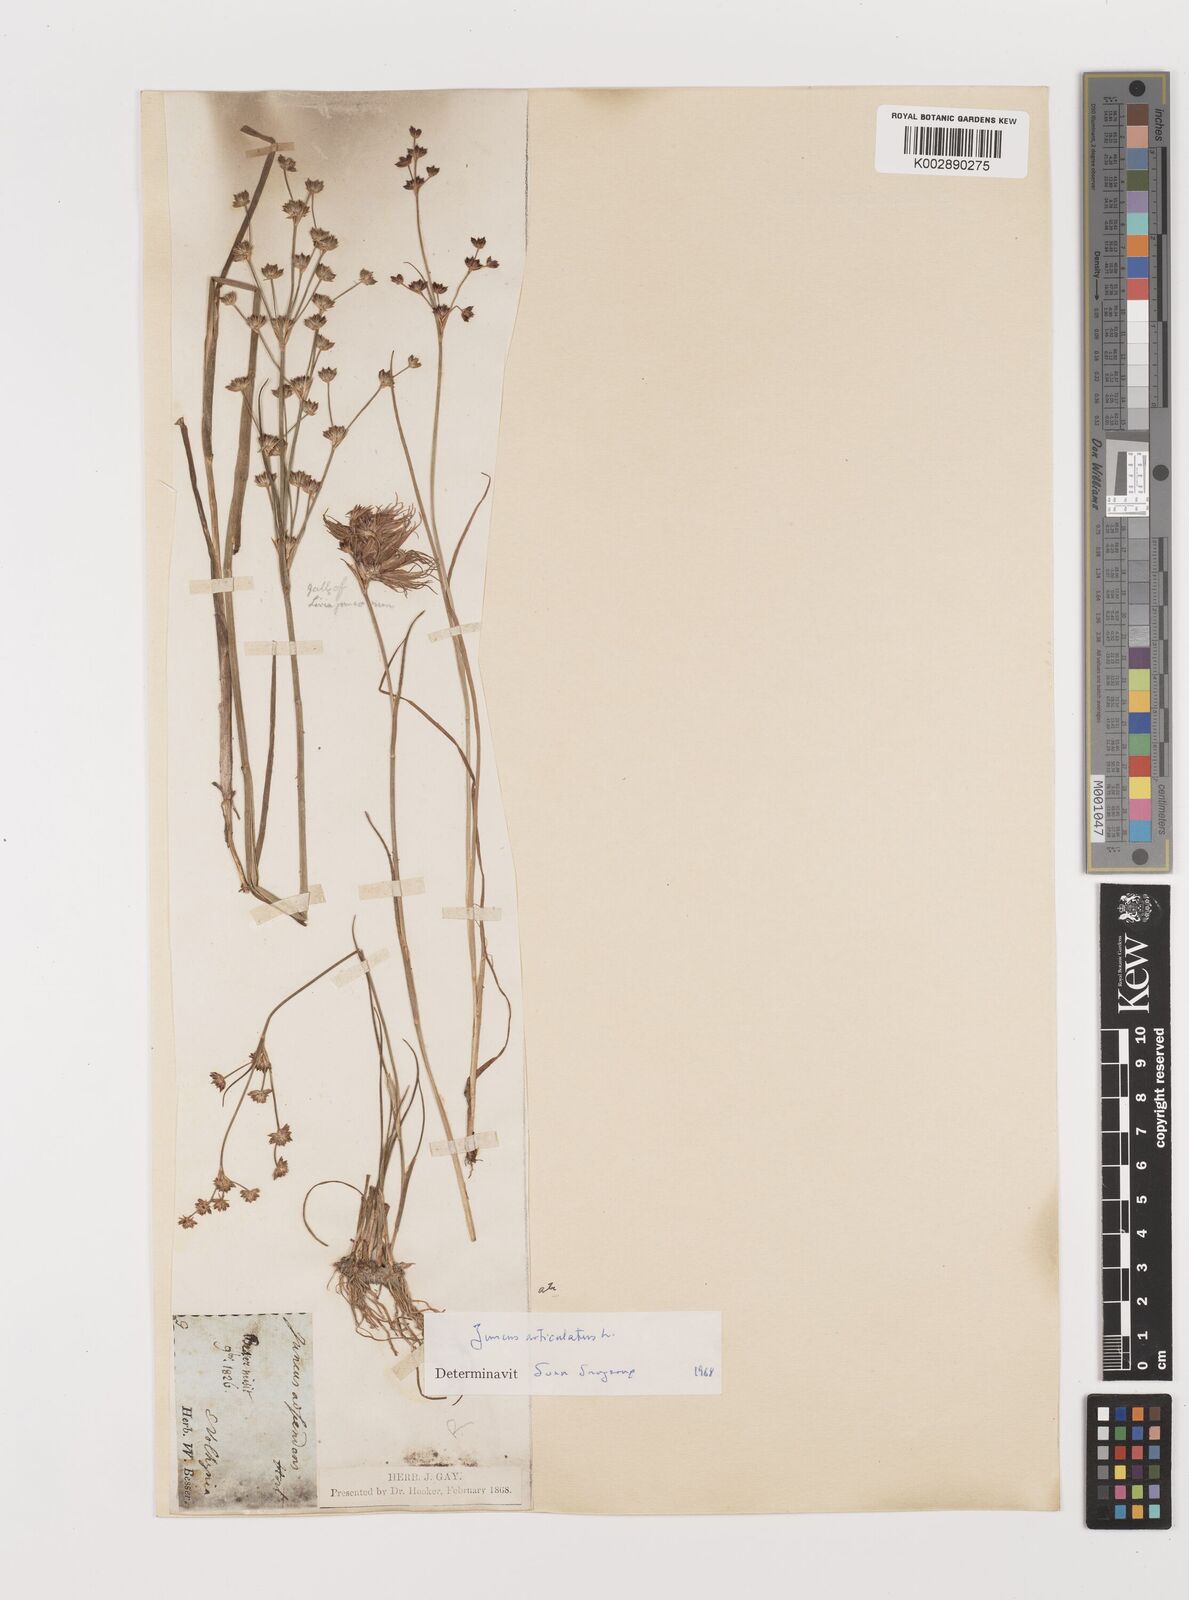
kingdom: Plantae
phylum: Tracheophyta
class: Liliopsida
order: Poales
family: Juncaceae
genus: Juncus
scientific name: Juncus articulatus
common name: Jointed rush
